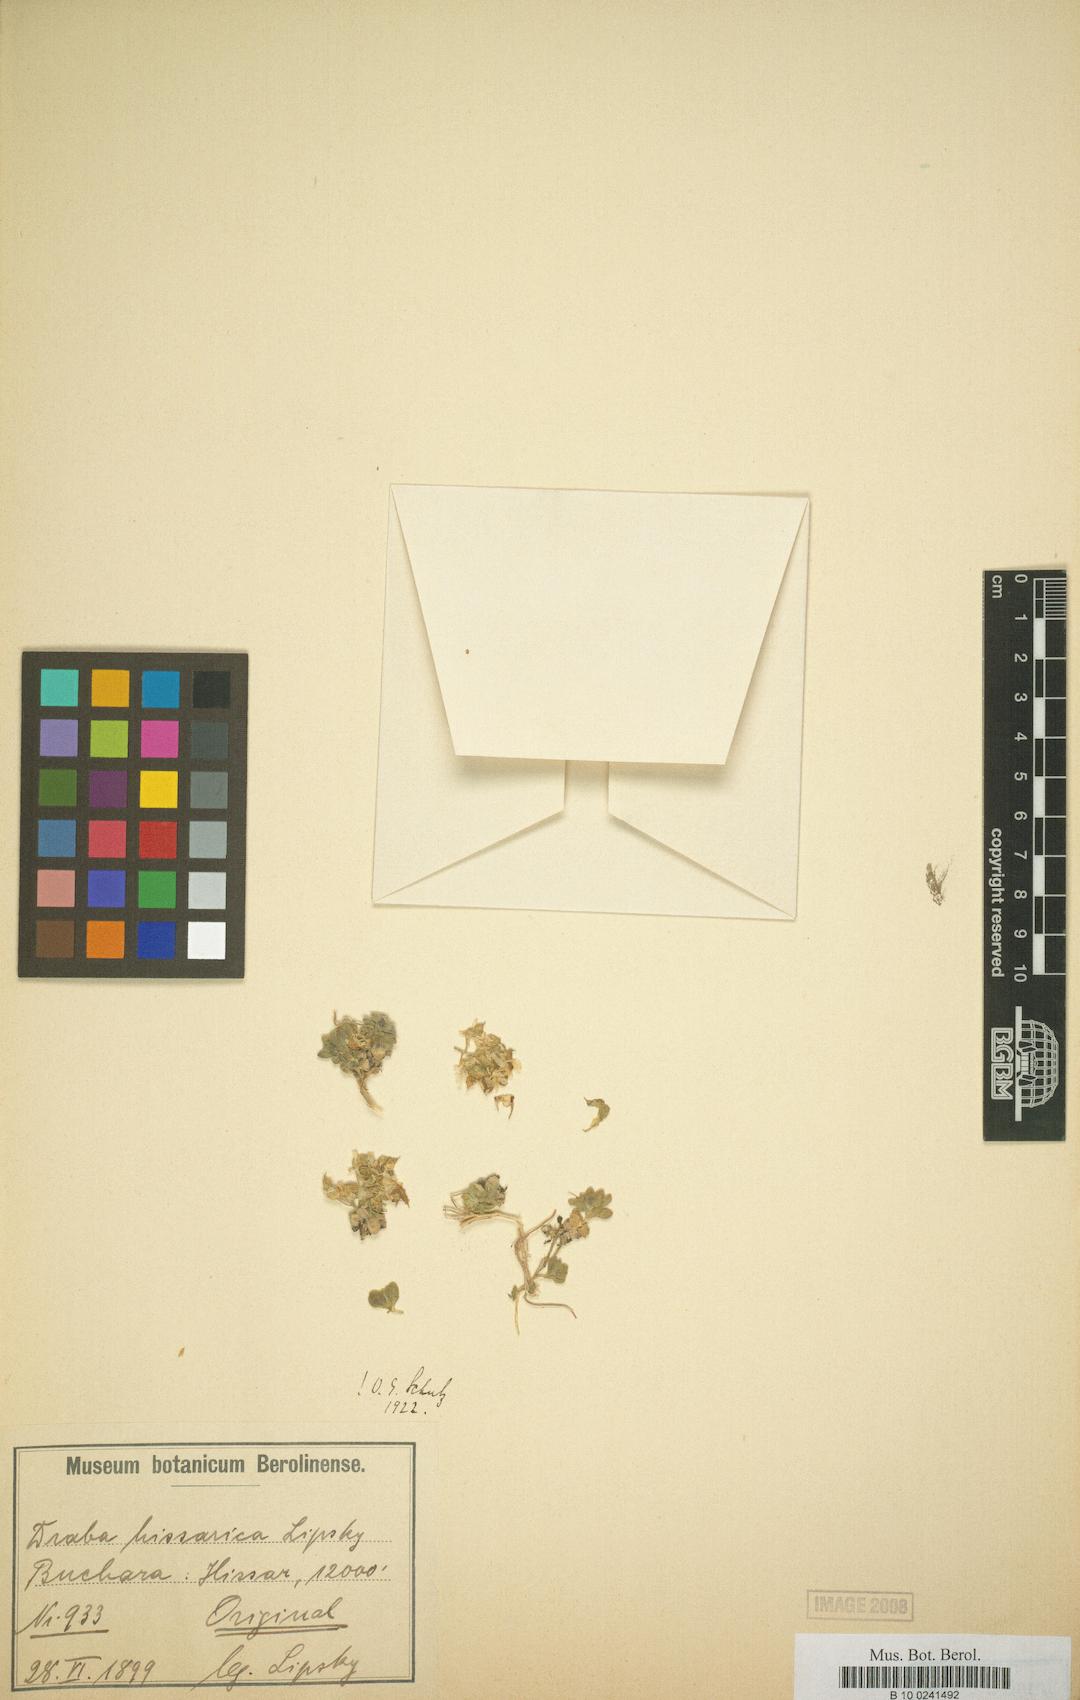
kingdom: Plantae
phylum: Tracheophyta
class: Magnoliopsida
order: Brassicales
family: Brassicaceae
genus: Draba
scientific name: Draba hissarica
